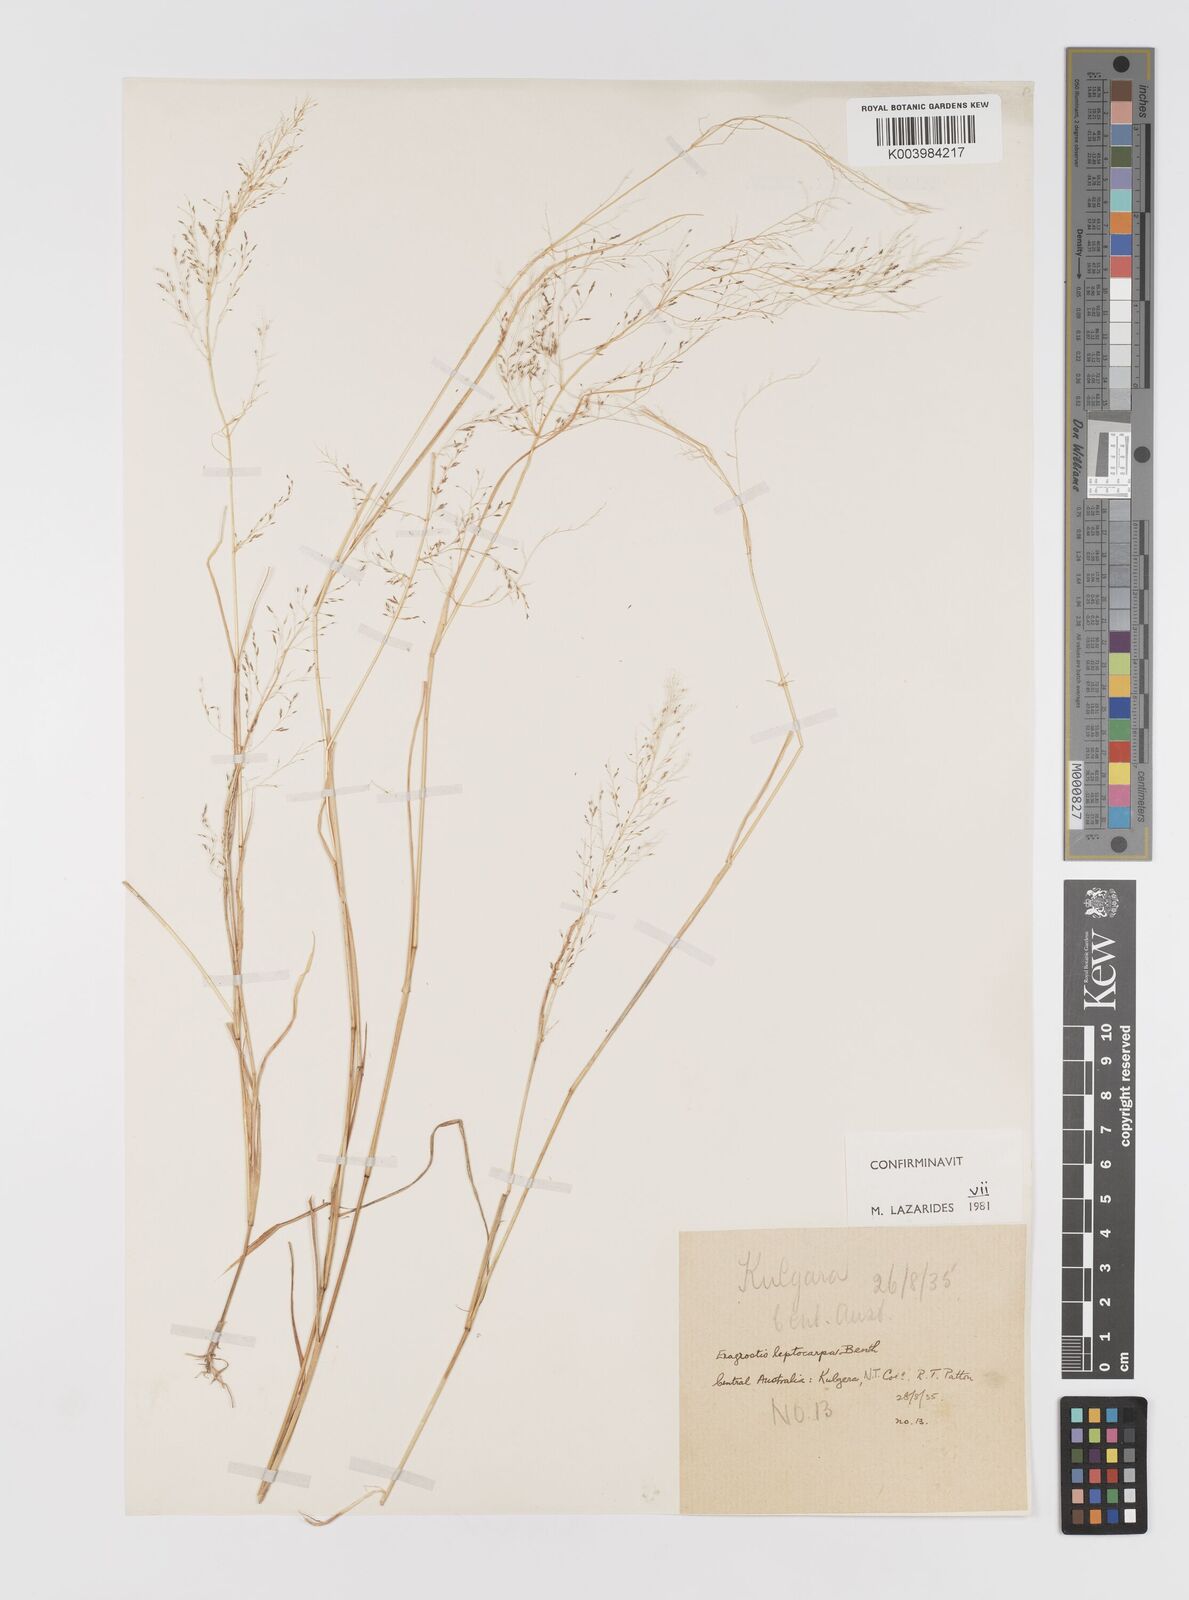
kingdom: Plantae
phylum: Tracheophyta
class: Liliopsida
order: Poales
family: Poaceae
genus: Eragrostis
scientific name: Eragrostis leptocarpa
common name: Drooping love grass
